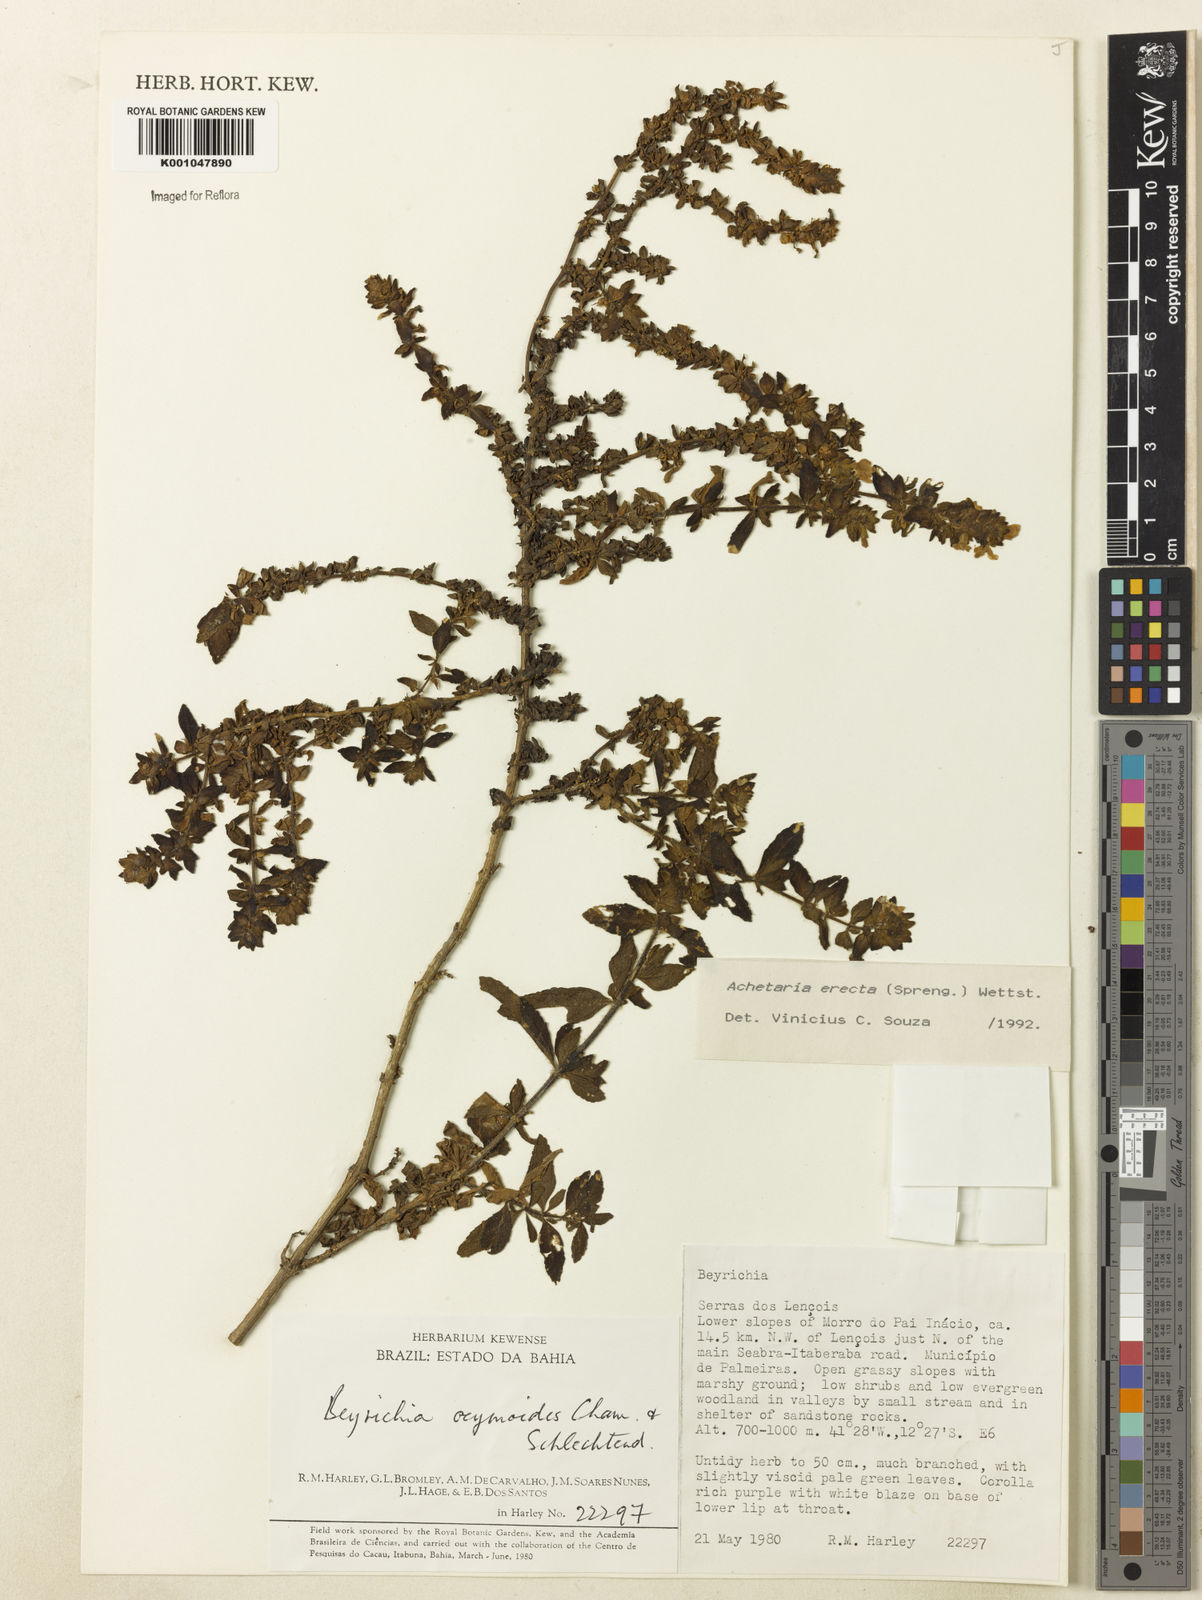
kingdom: Plantae
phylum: Tracheophyta
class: Magnoliopsida
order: Lamiales
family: Plantaginaceae
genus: Matourea
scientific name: Matourea erecta
